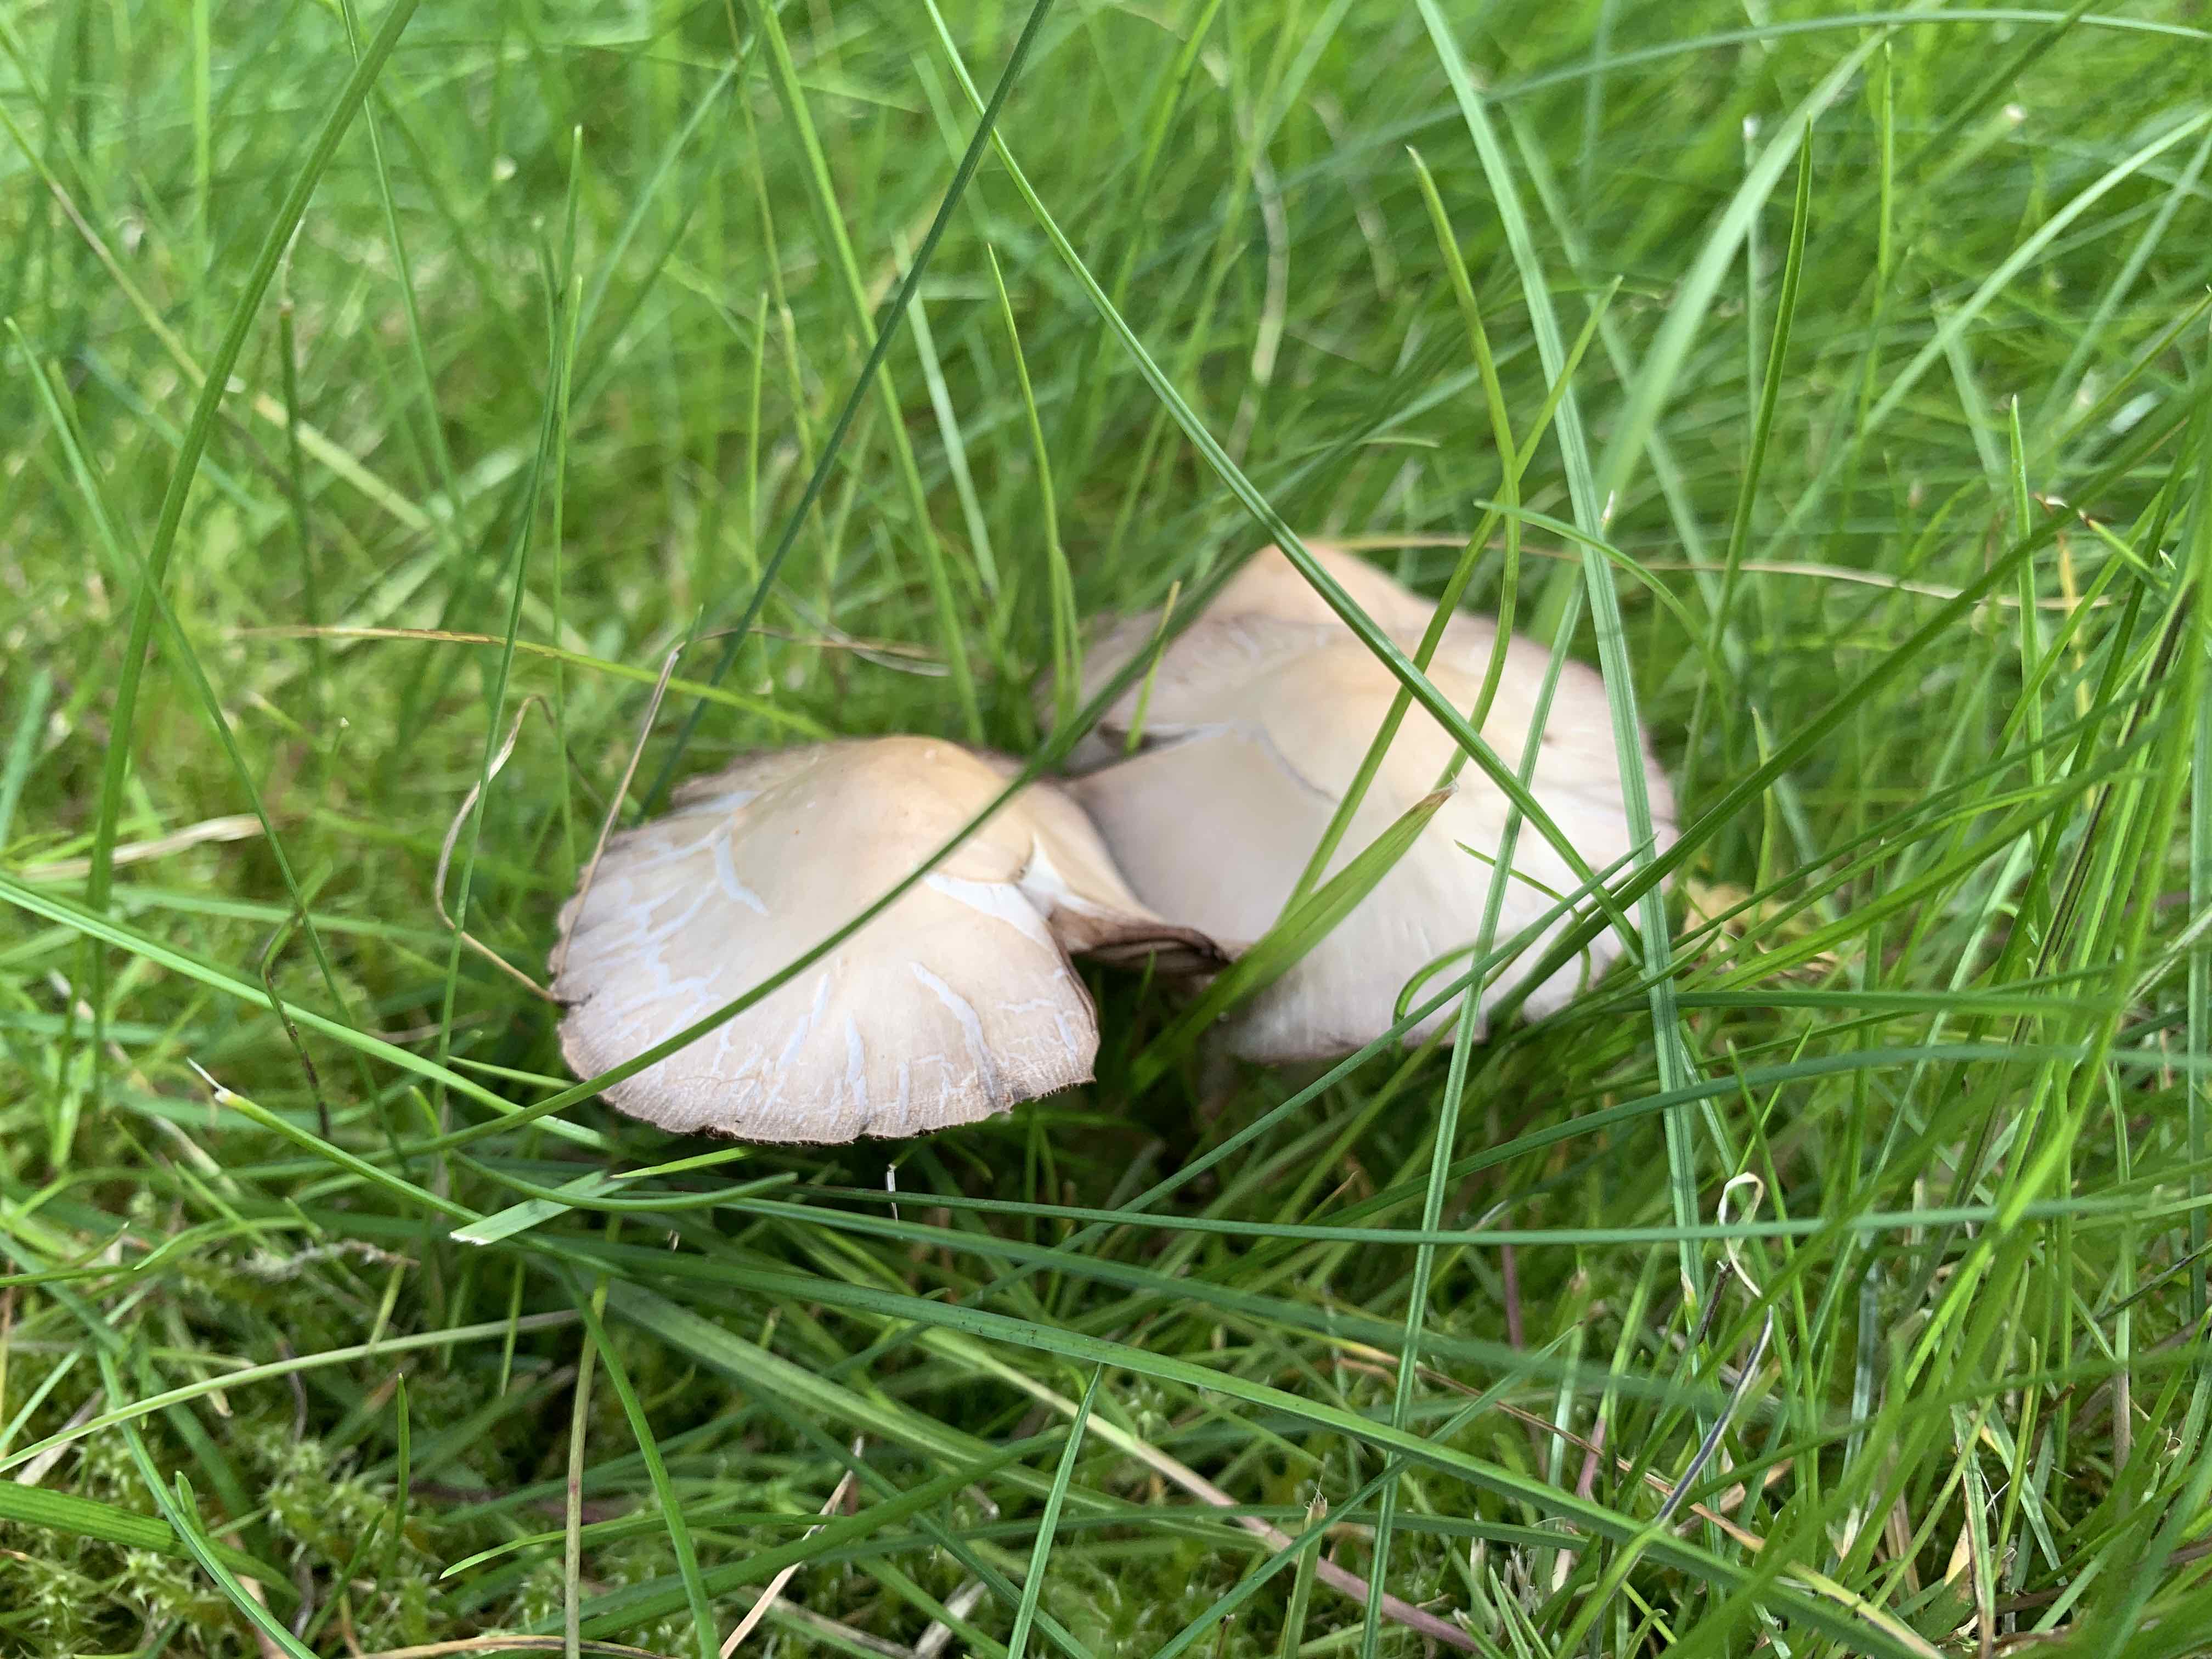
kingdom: Fungi
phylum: Basidiomycota
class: Agaricomycetes
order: Agaricales
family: Psathyrellaceae
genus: Candolleomyces
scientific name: Candolleomyces candolleanus
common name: Candolles mørkhat
